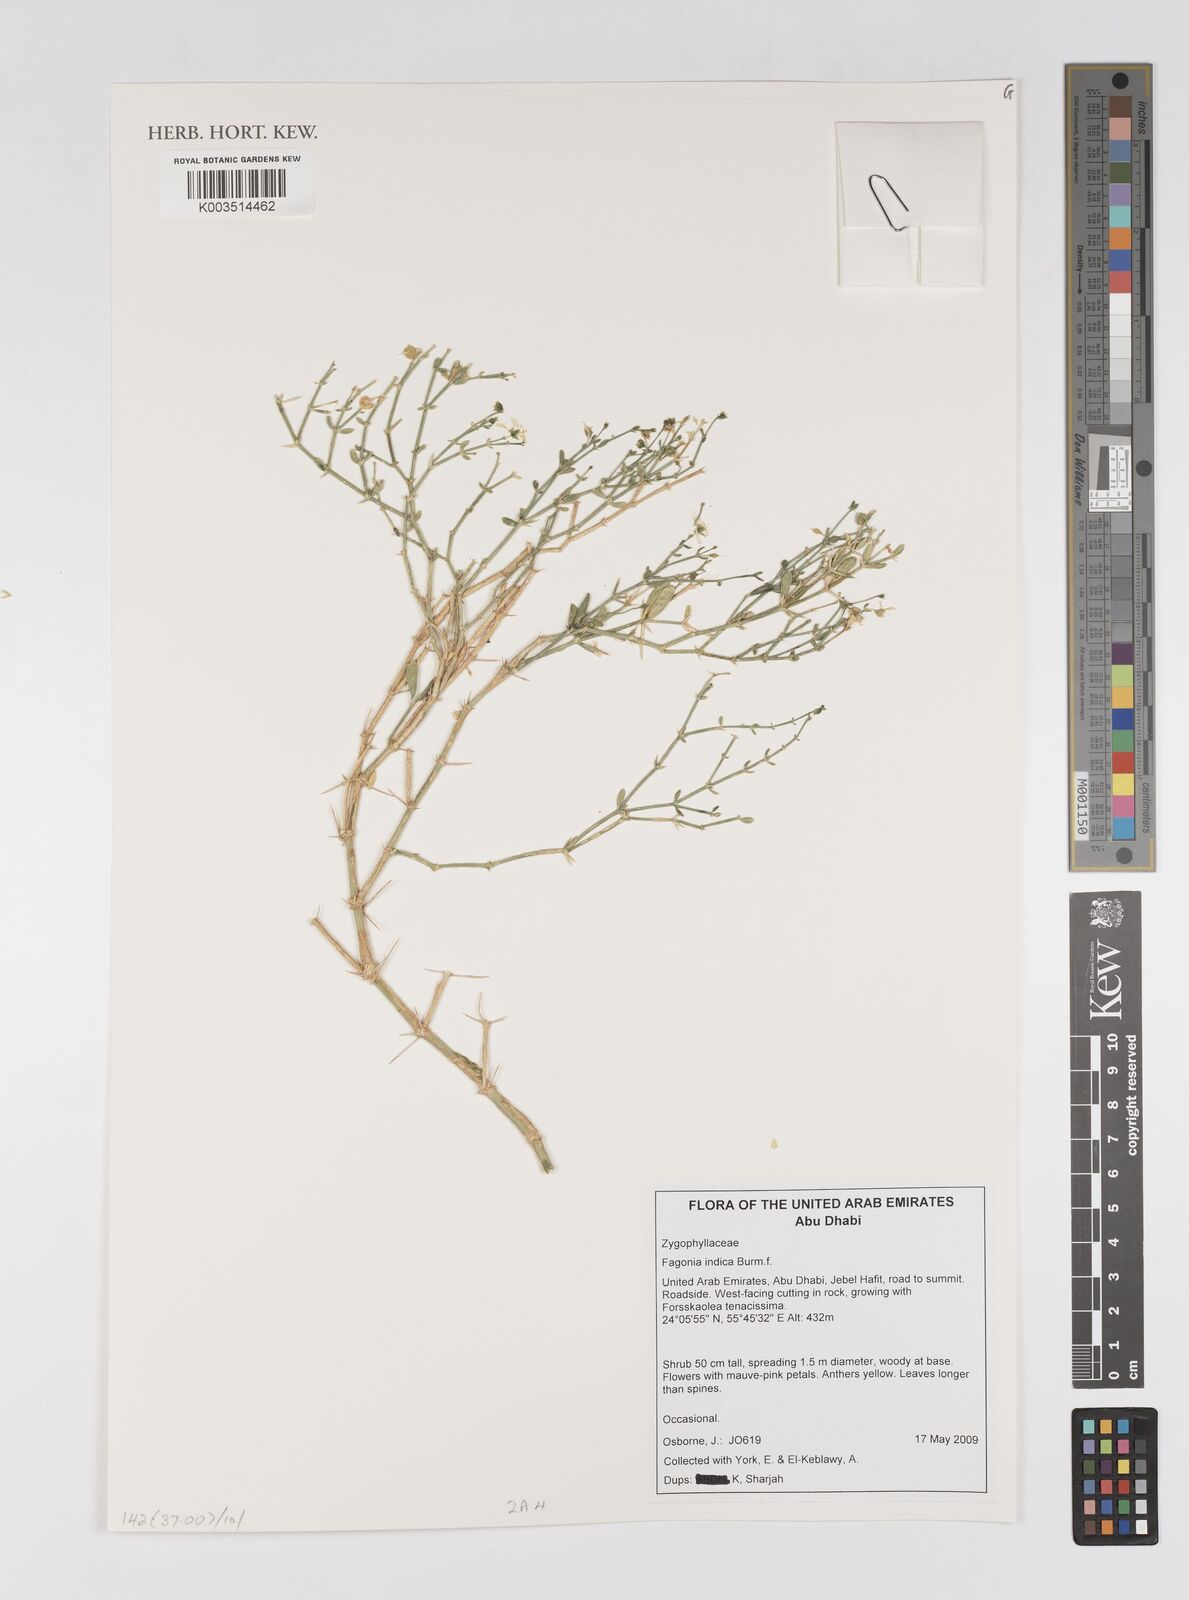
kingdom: Plantae
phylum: Tracheophyta
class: Magnoliopsida
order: Zygophyllales
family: Zygophyllaceae
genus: Fagonia
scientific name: Fagonia indica
